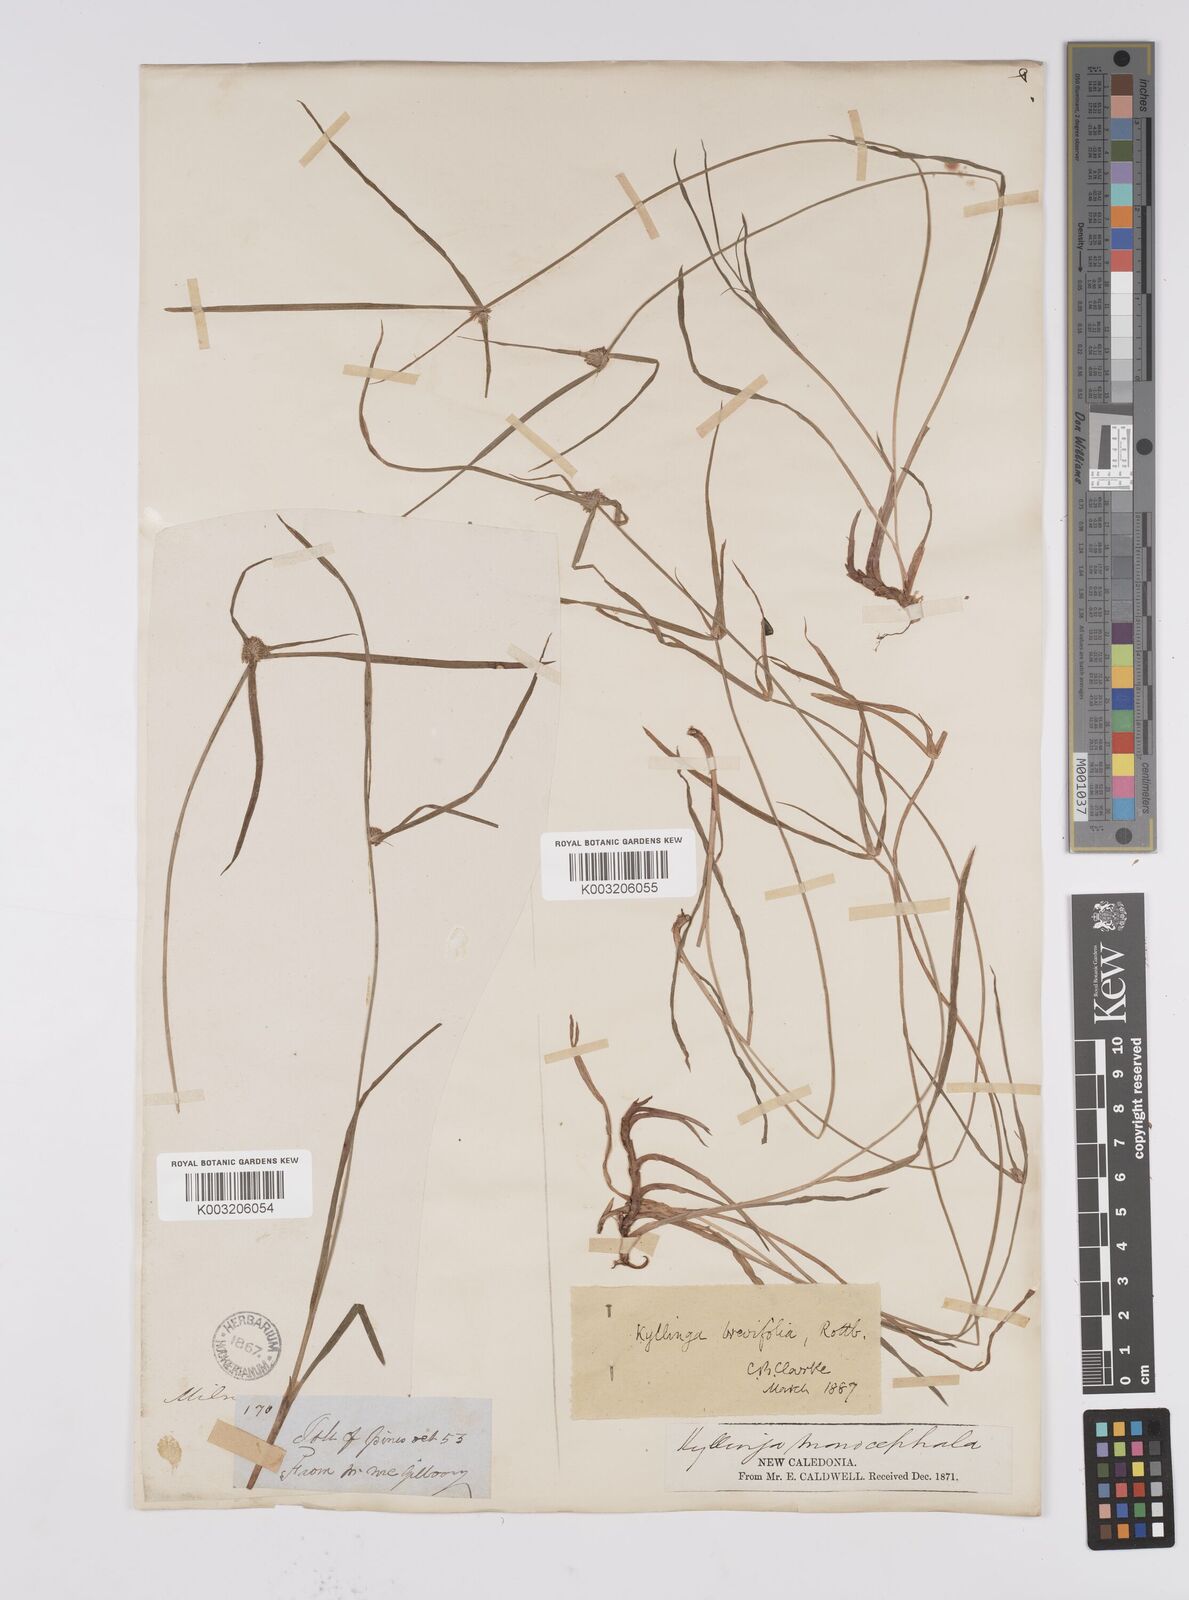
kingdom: Plantae
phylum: Tracheophyta
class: Liliopsida
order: Poales
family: Cyperaceae
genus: Cyperus
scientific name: Cyperus brevifolius
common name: Globe kyllinga
